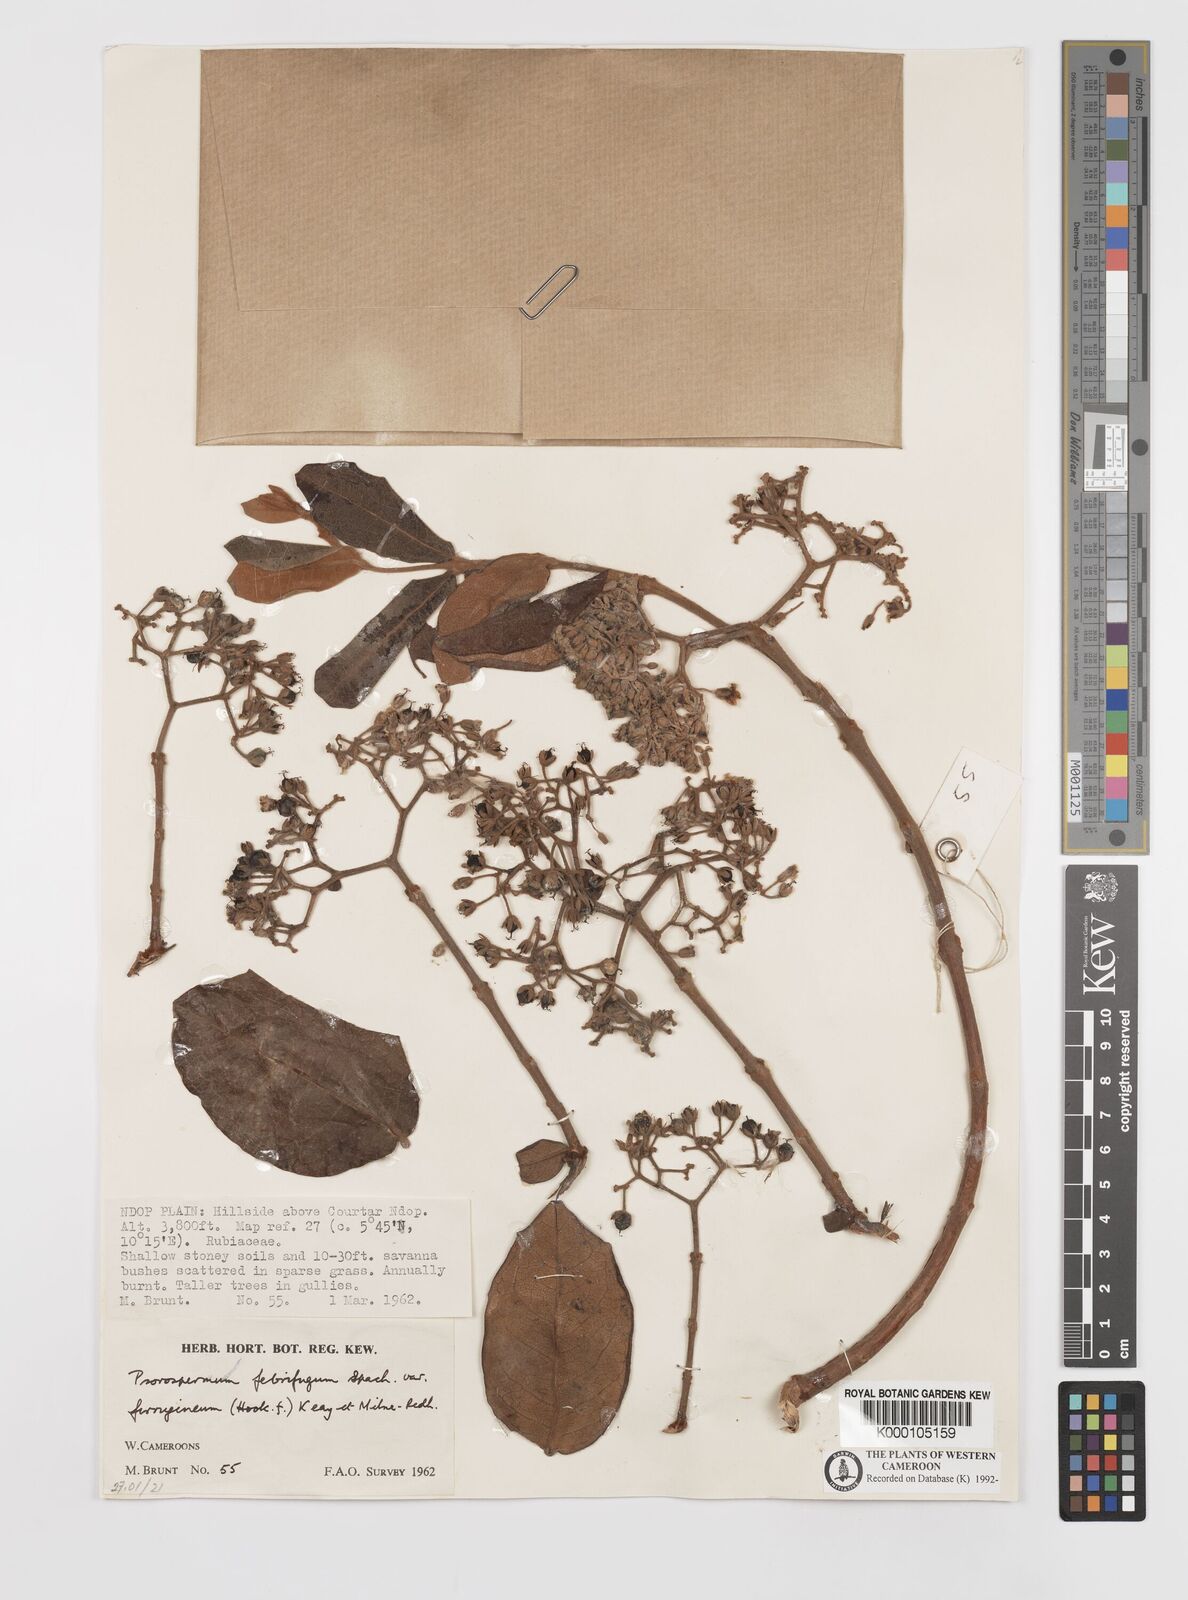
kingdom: Plantae
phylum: Tracheophyta
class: Magnoliopsida
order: Malpighiales
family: Hypericaceae
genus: Psorospermum
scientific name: Psorospermum
